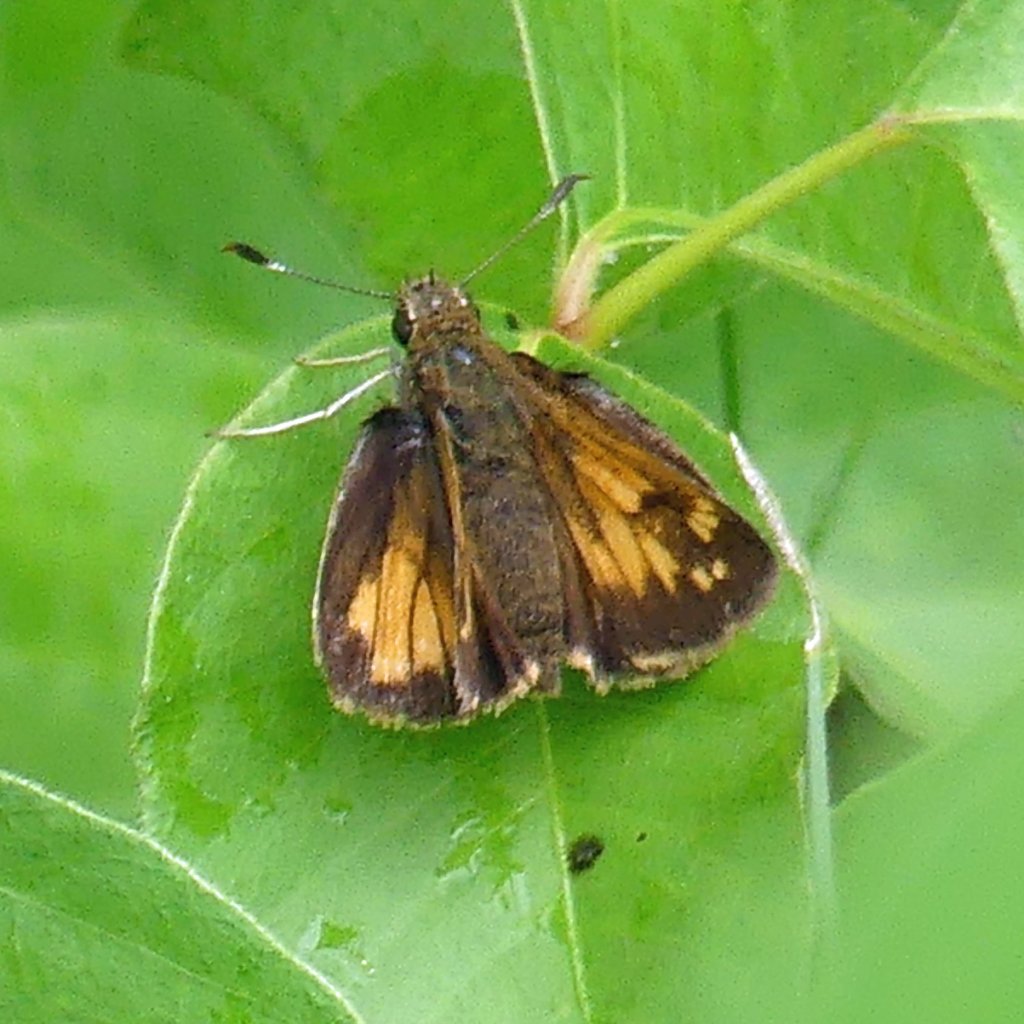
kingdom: Animalia
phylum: Arthropoda
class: Insecta
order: Lepidoptera
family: Hesperiidae
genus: Lon
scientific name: Lon hobomok
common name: Hobomok Skipper
